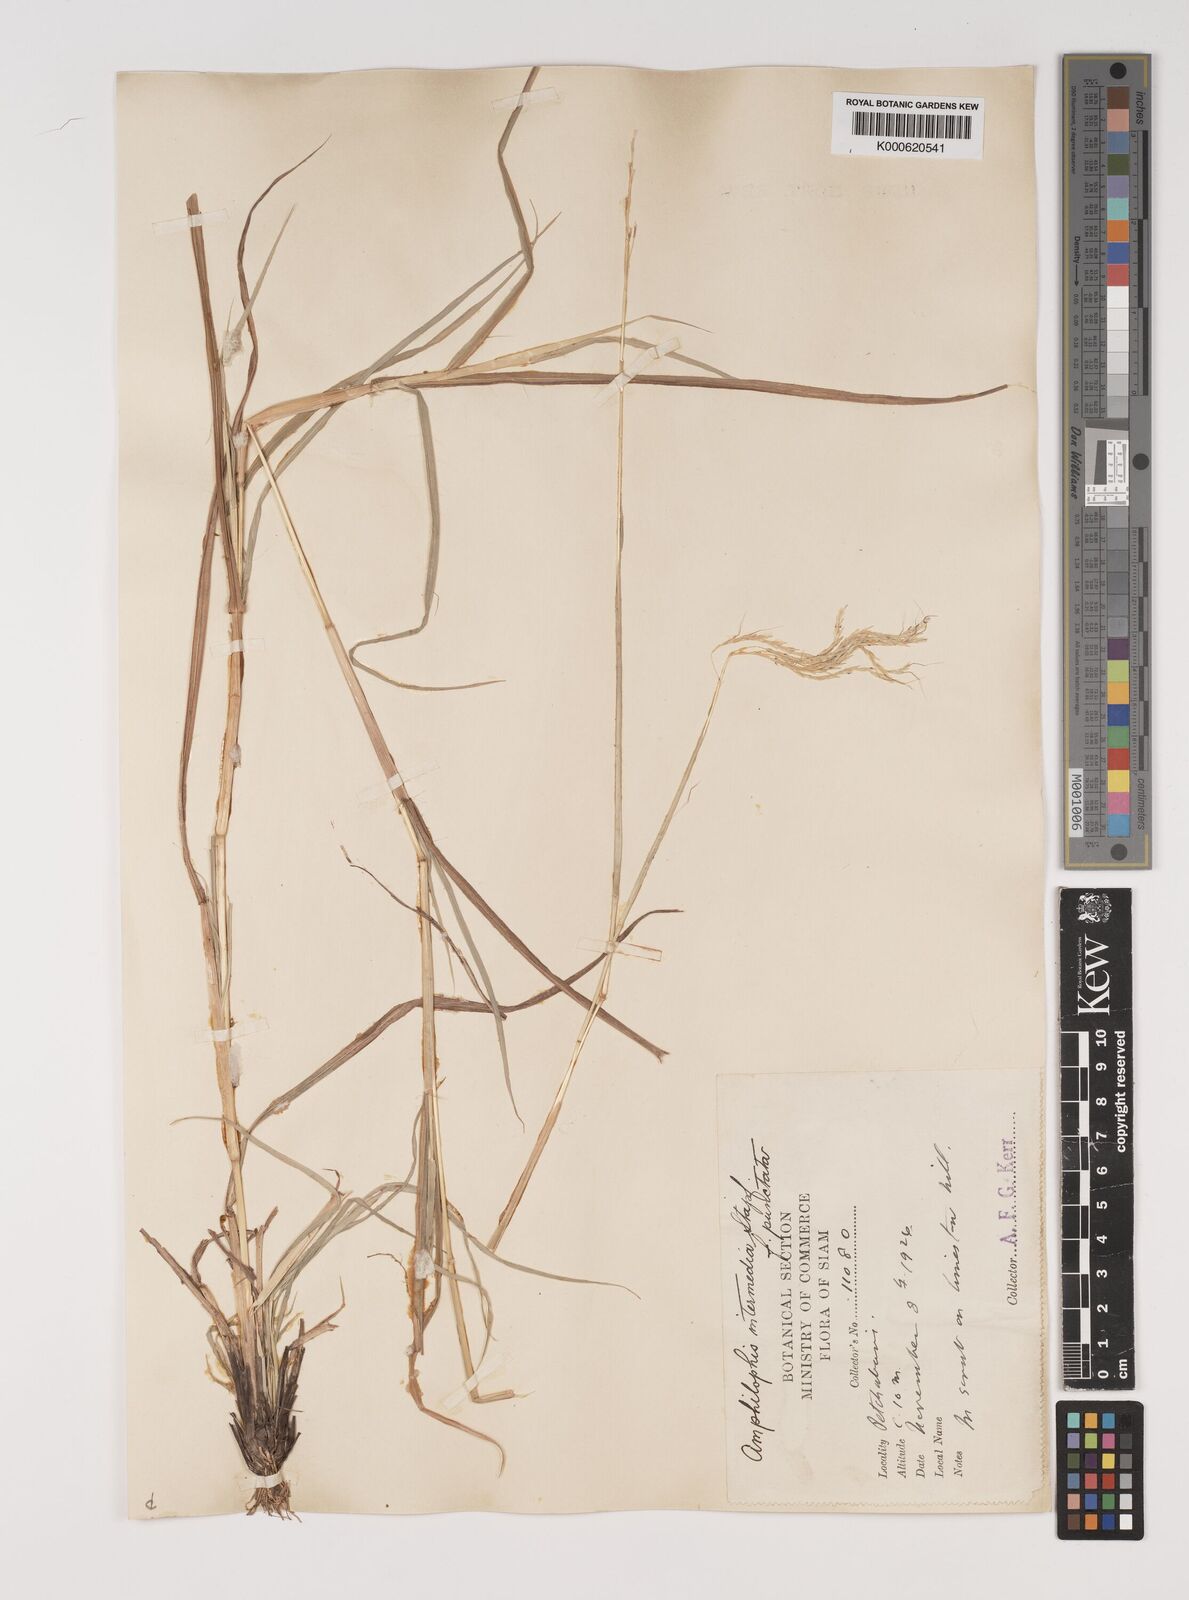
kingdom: Plantae
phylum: Tracheophyta
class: Liliopsida
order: Poales
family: Poaceae
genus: Bothriochloa
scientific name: Bothriochloa
